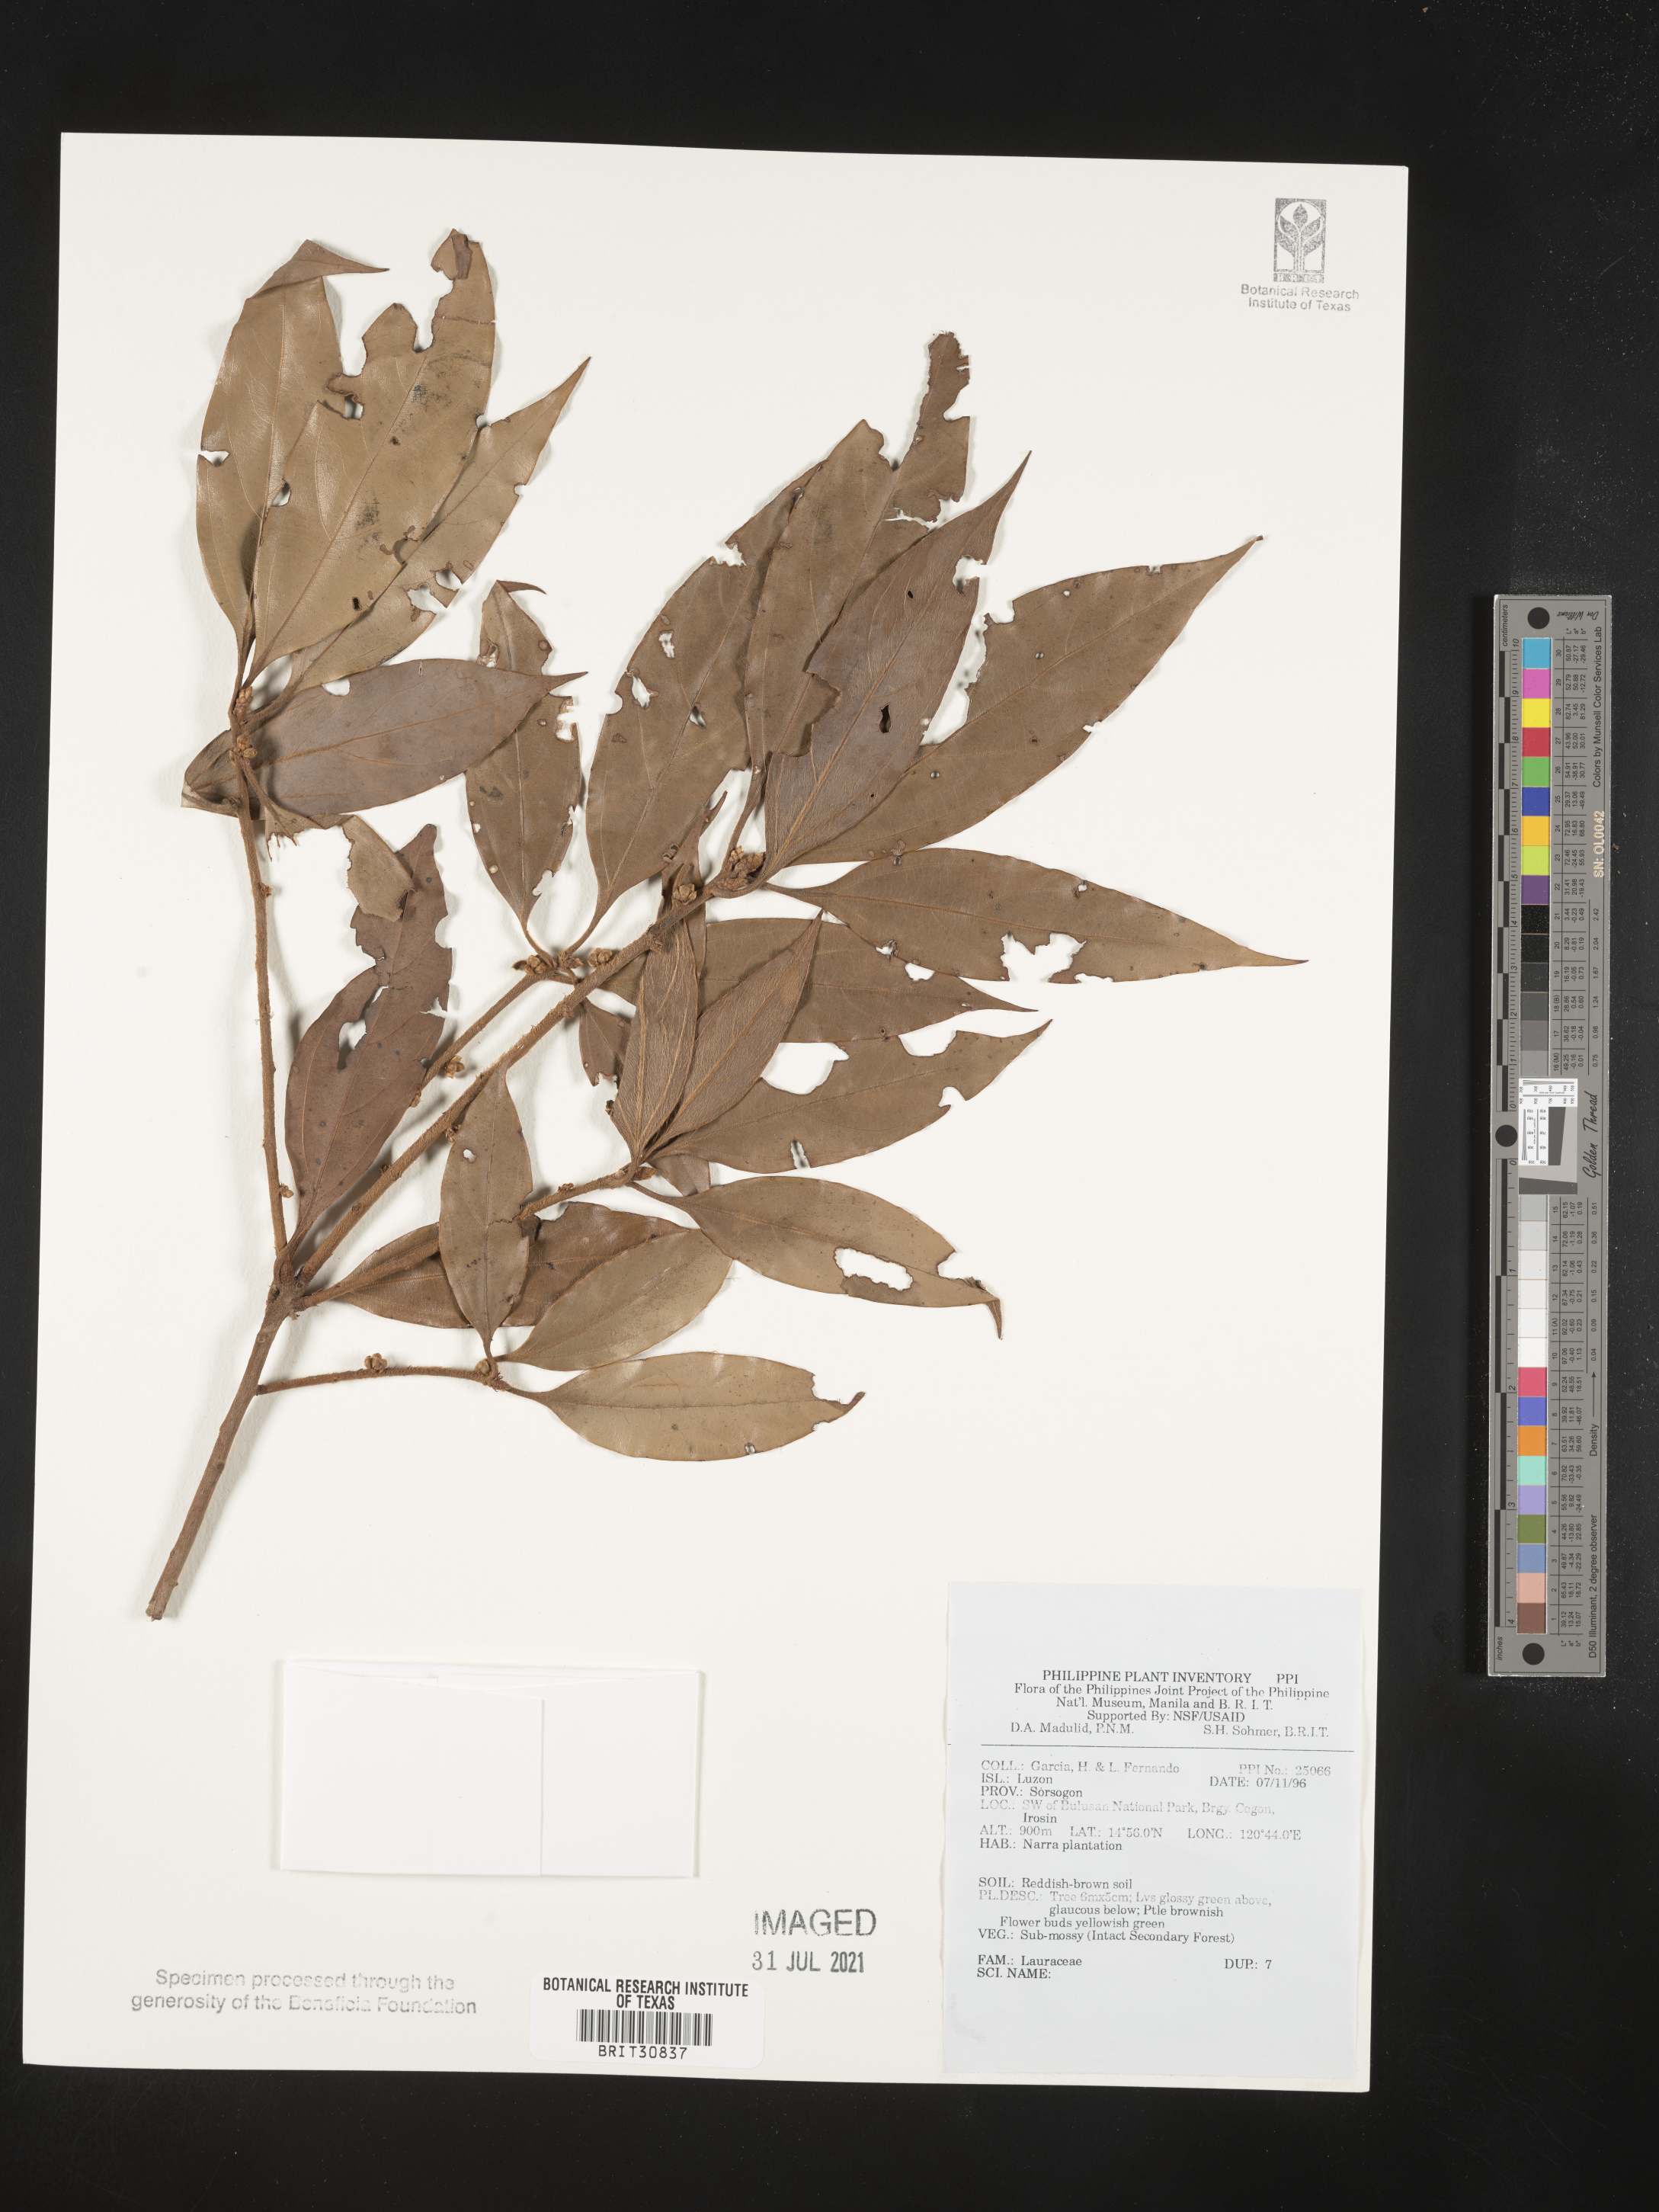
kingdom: Plantae
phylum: Tracheophyta
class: Magnoliopsida
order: Laurales
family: Lauraceae
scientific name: Lauraceae
